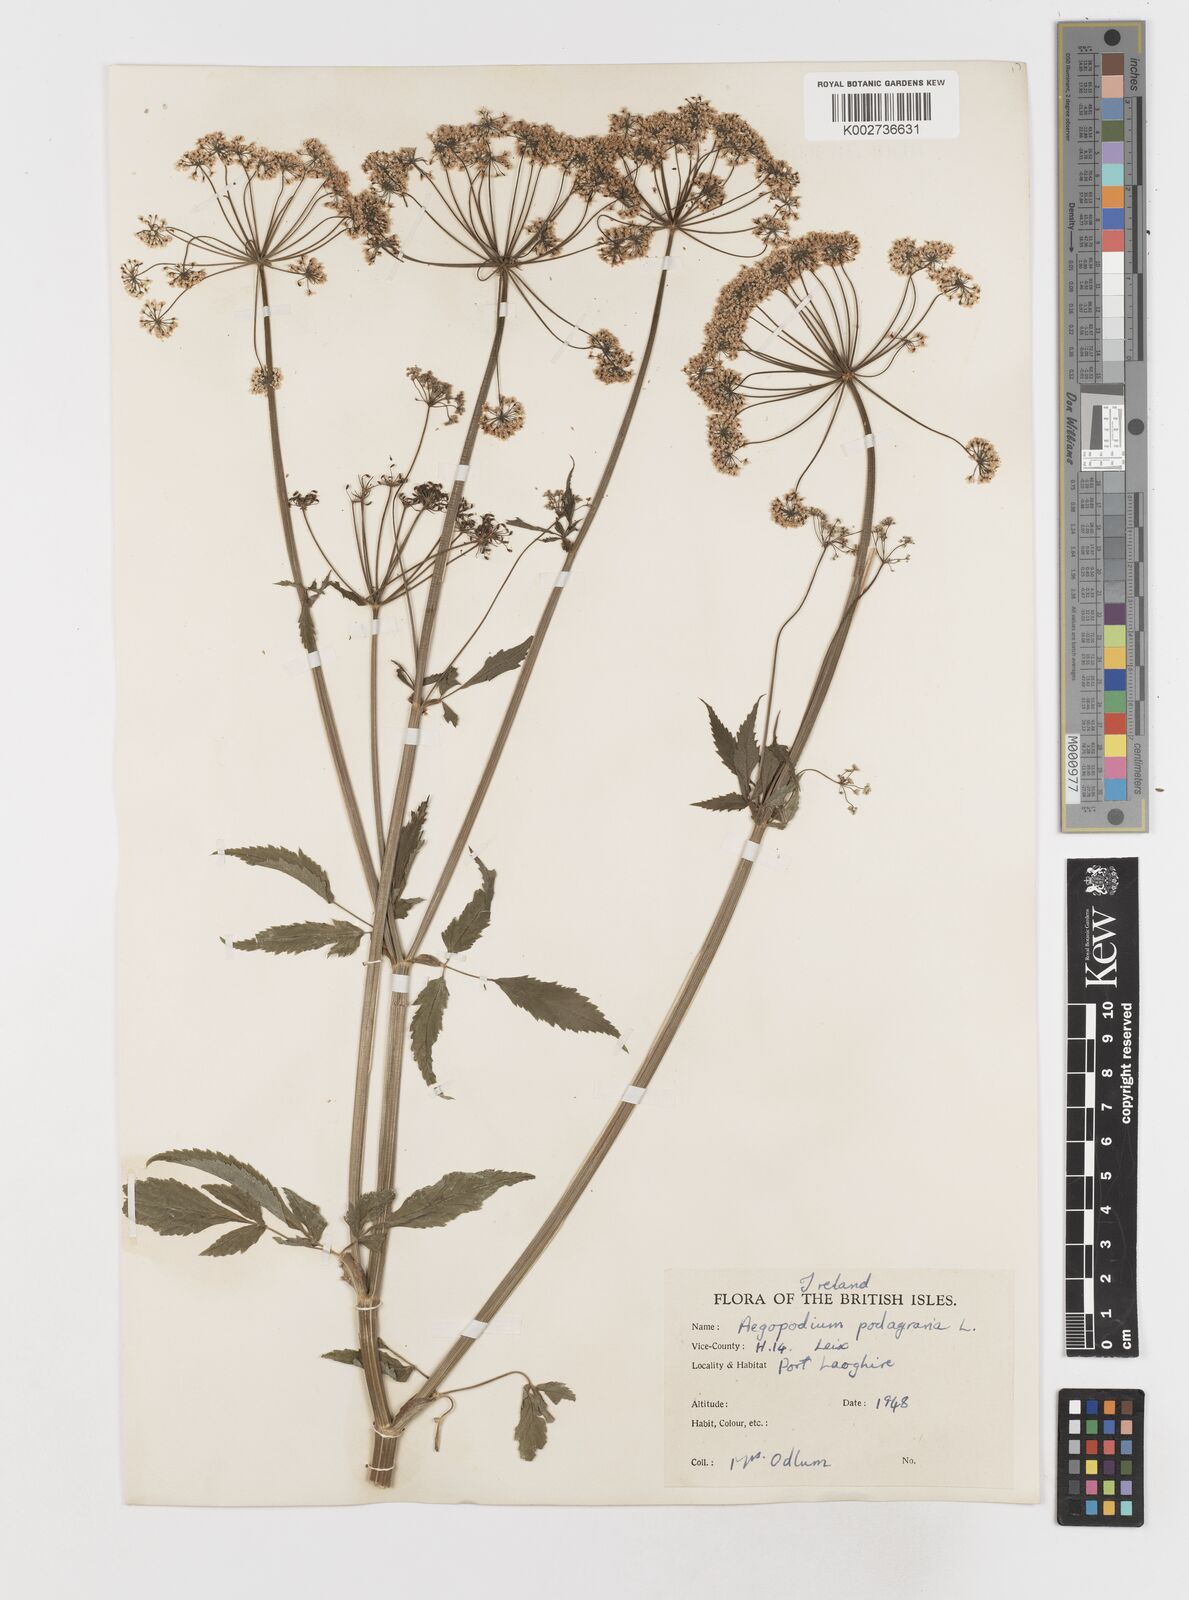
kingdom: Plantae
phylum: Tracheophyta
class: Magnoliopsida
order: Apiales
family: Apiaceae
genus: Aegopodium
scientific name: Aegopodium podagraria
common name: Ground-elder
